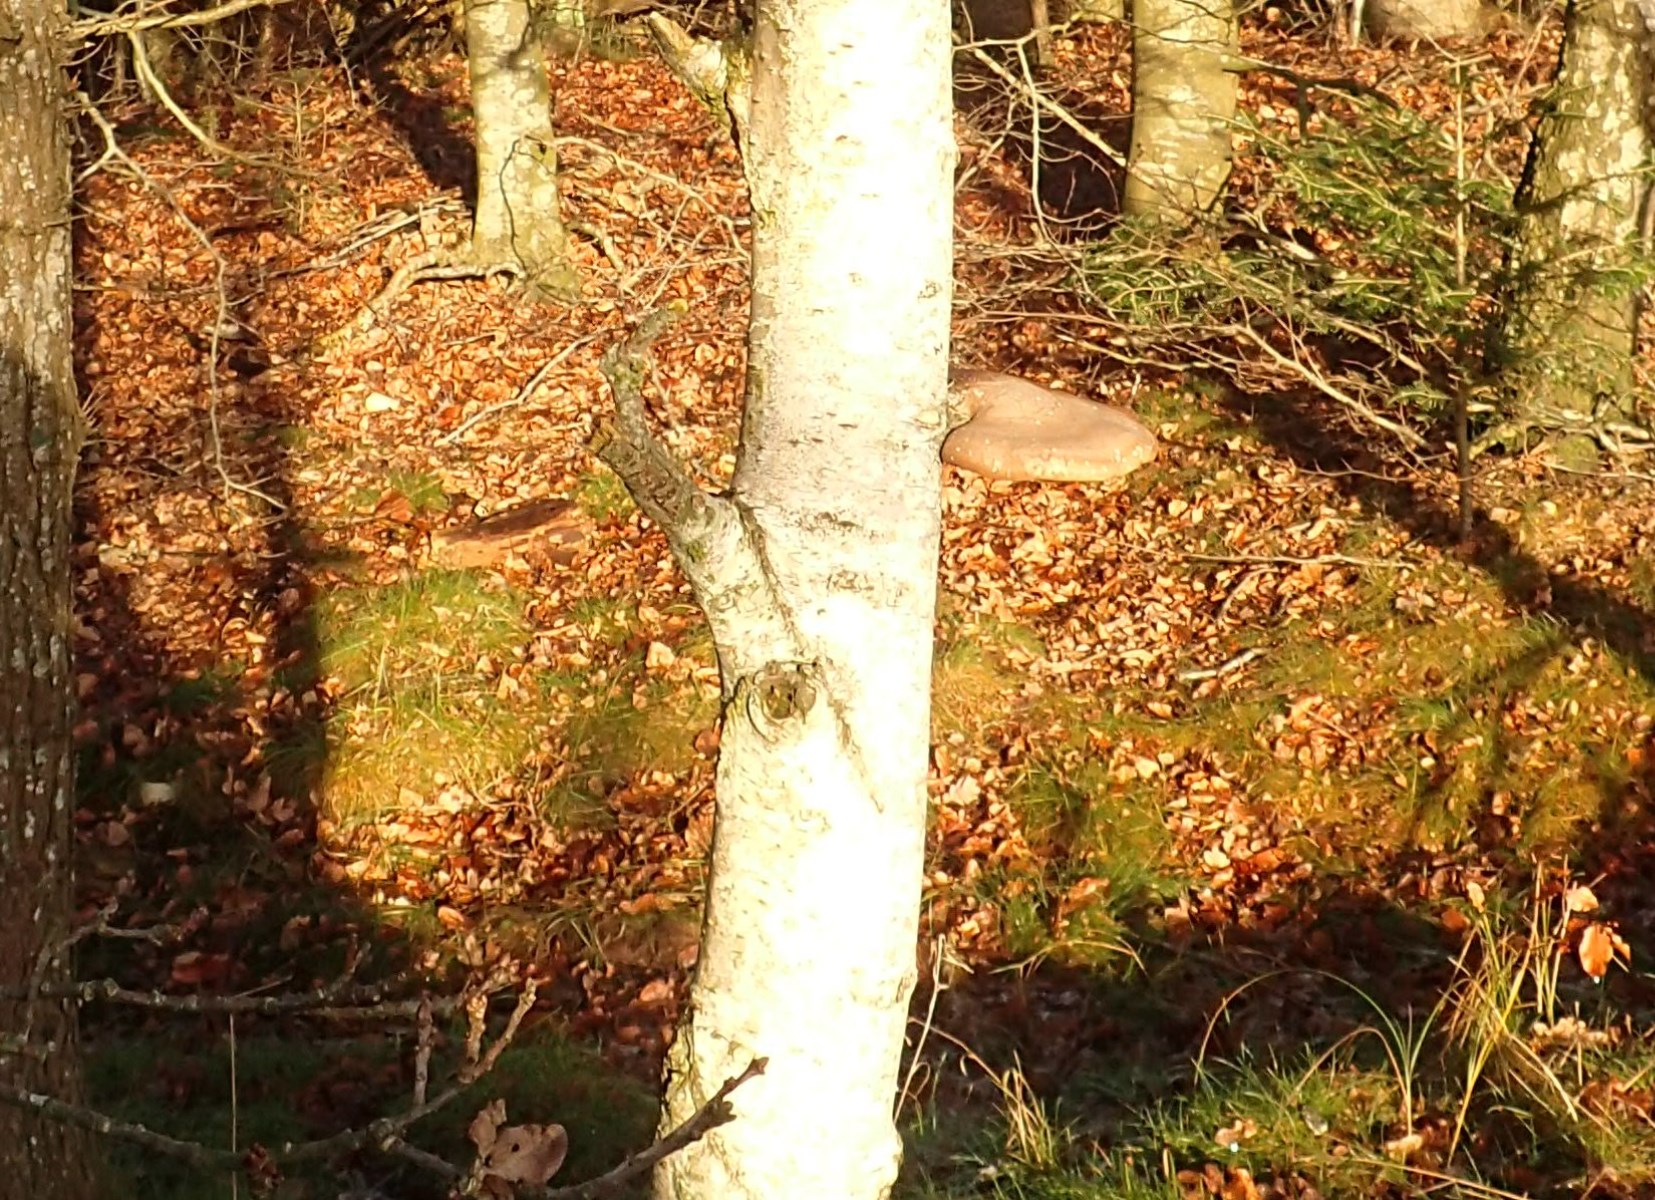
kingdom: Fungi
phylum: Basidiomycota
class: Agaricomycetes
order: Polyporales
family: Fomitopsidaceae
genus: Fomitopsis
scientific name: Fomitopsis betulina
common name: birkeporesvamp
